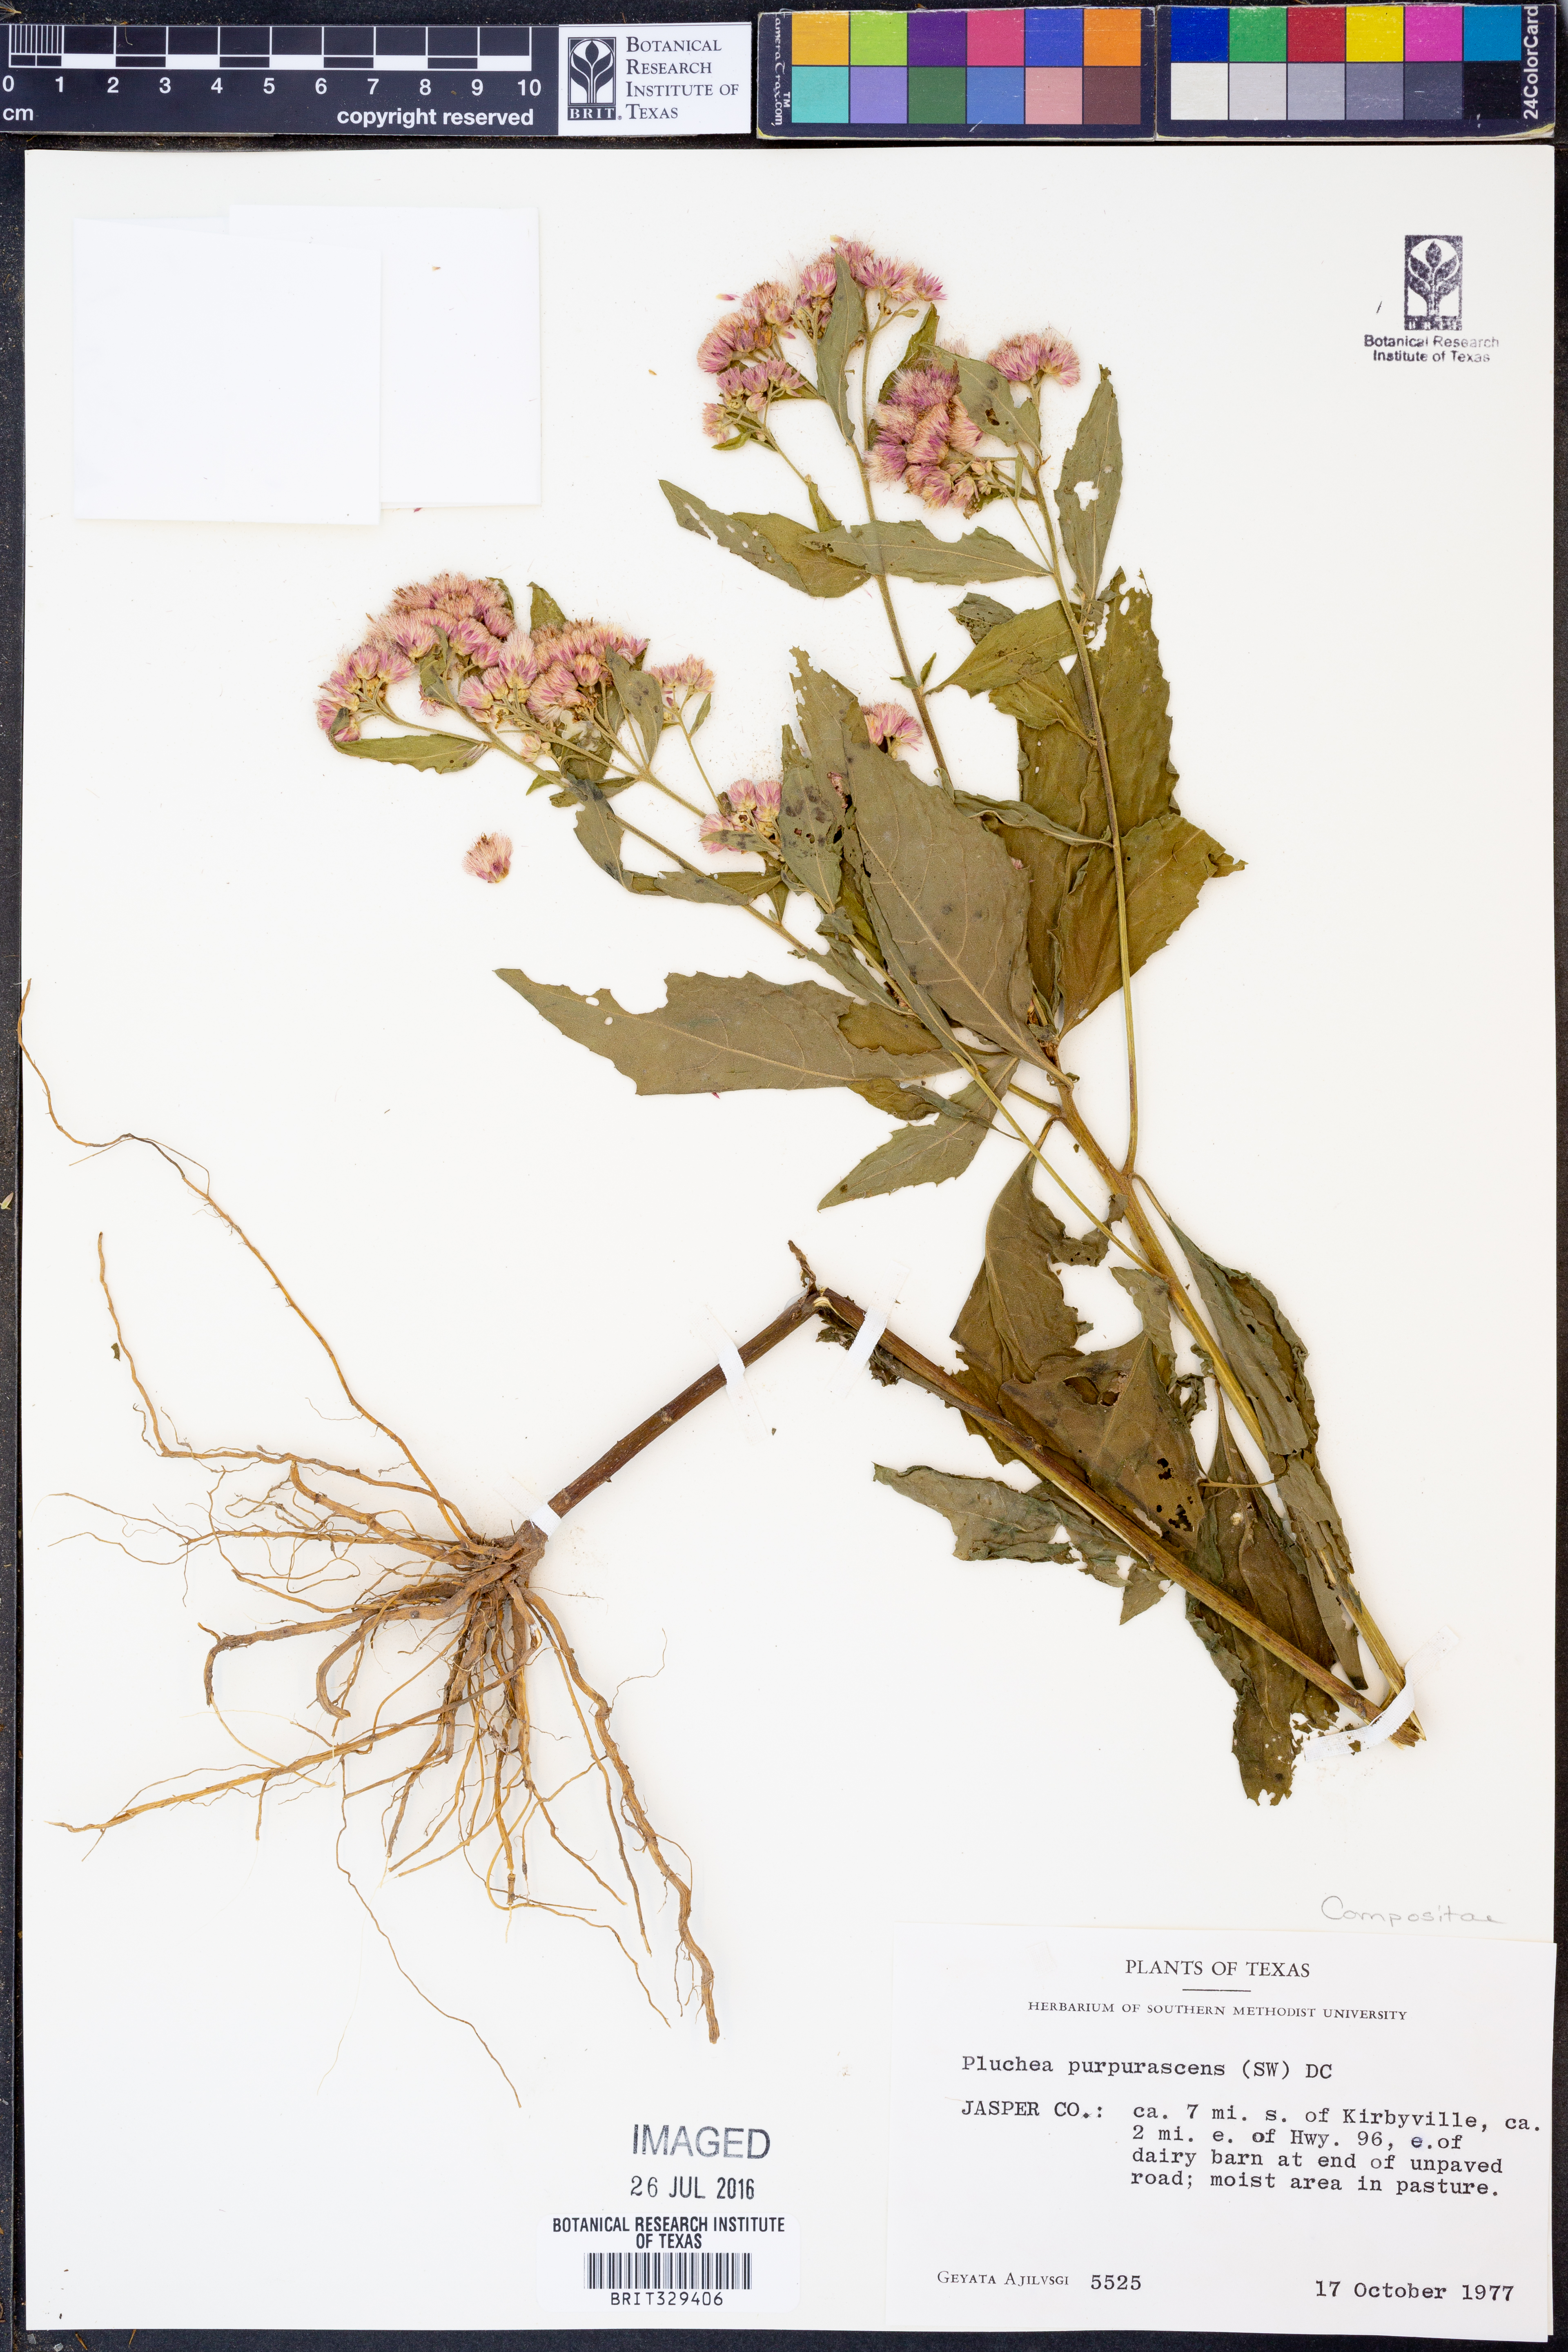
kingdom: Plantae
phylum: Tracheophyta
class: Magnoliopsida
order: Asterales
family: Asteraceae
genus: Pluchea
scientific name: Pluchea odorata
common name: Saltmarsh fleabane
